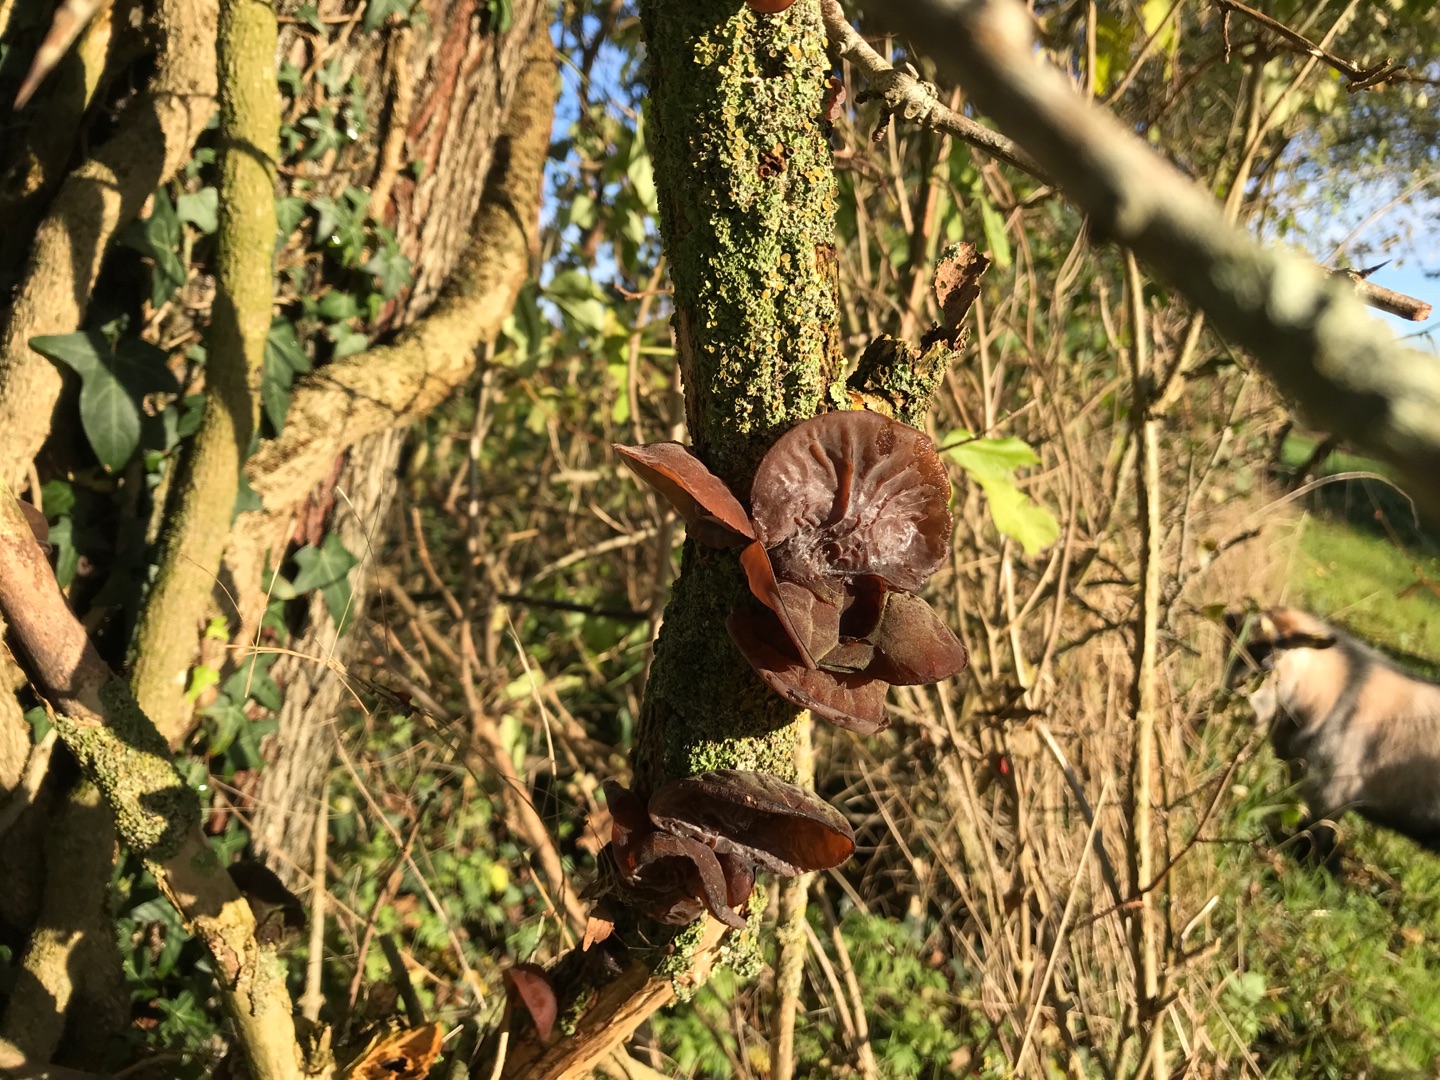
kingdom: Fungi
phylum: Basidiomycota
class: Agaricomycetes
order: Auriculariales
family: Auriculariaceae
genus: Auricularia
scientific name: Auricularia auricula-judae
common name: Almindelig judasøre
